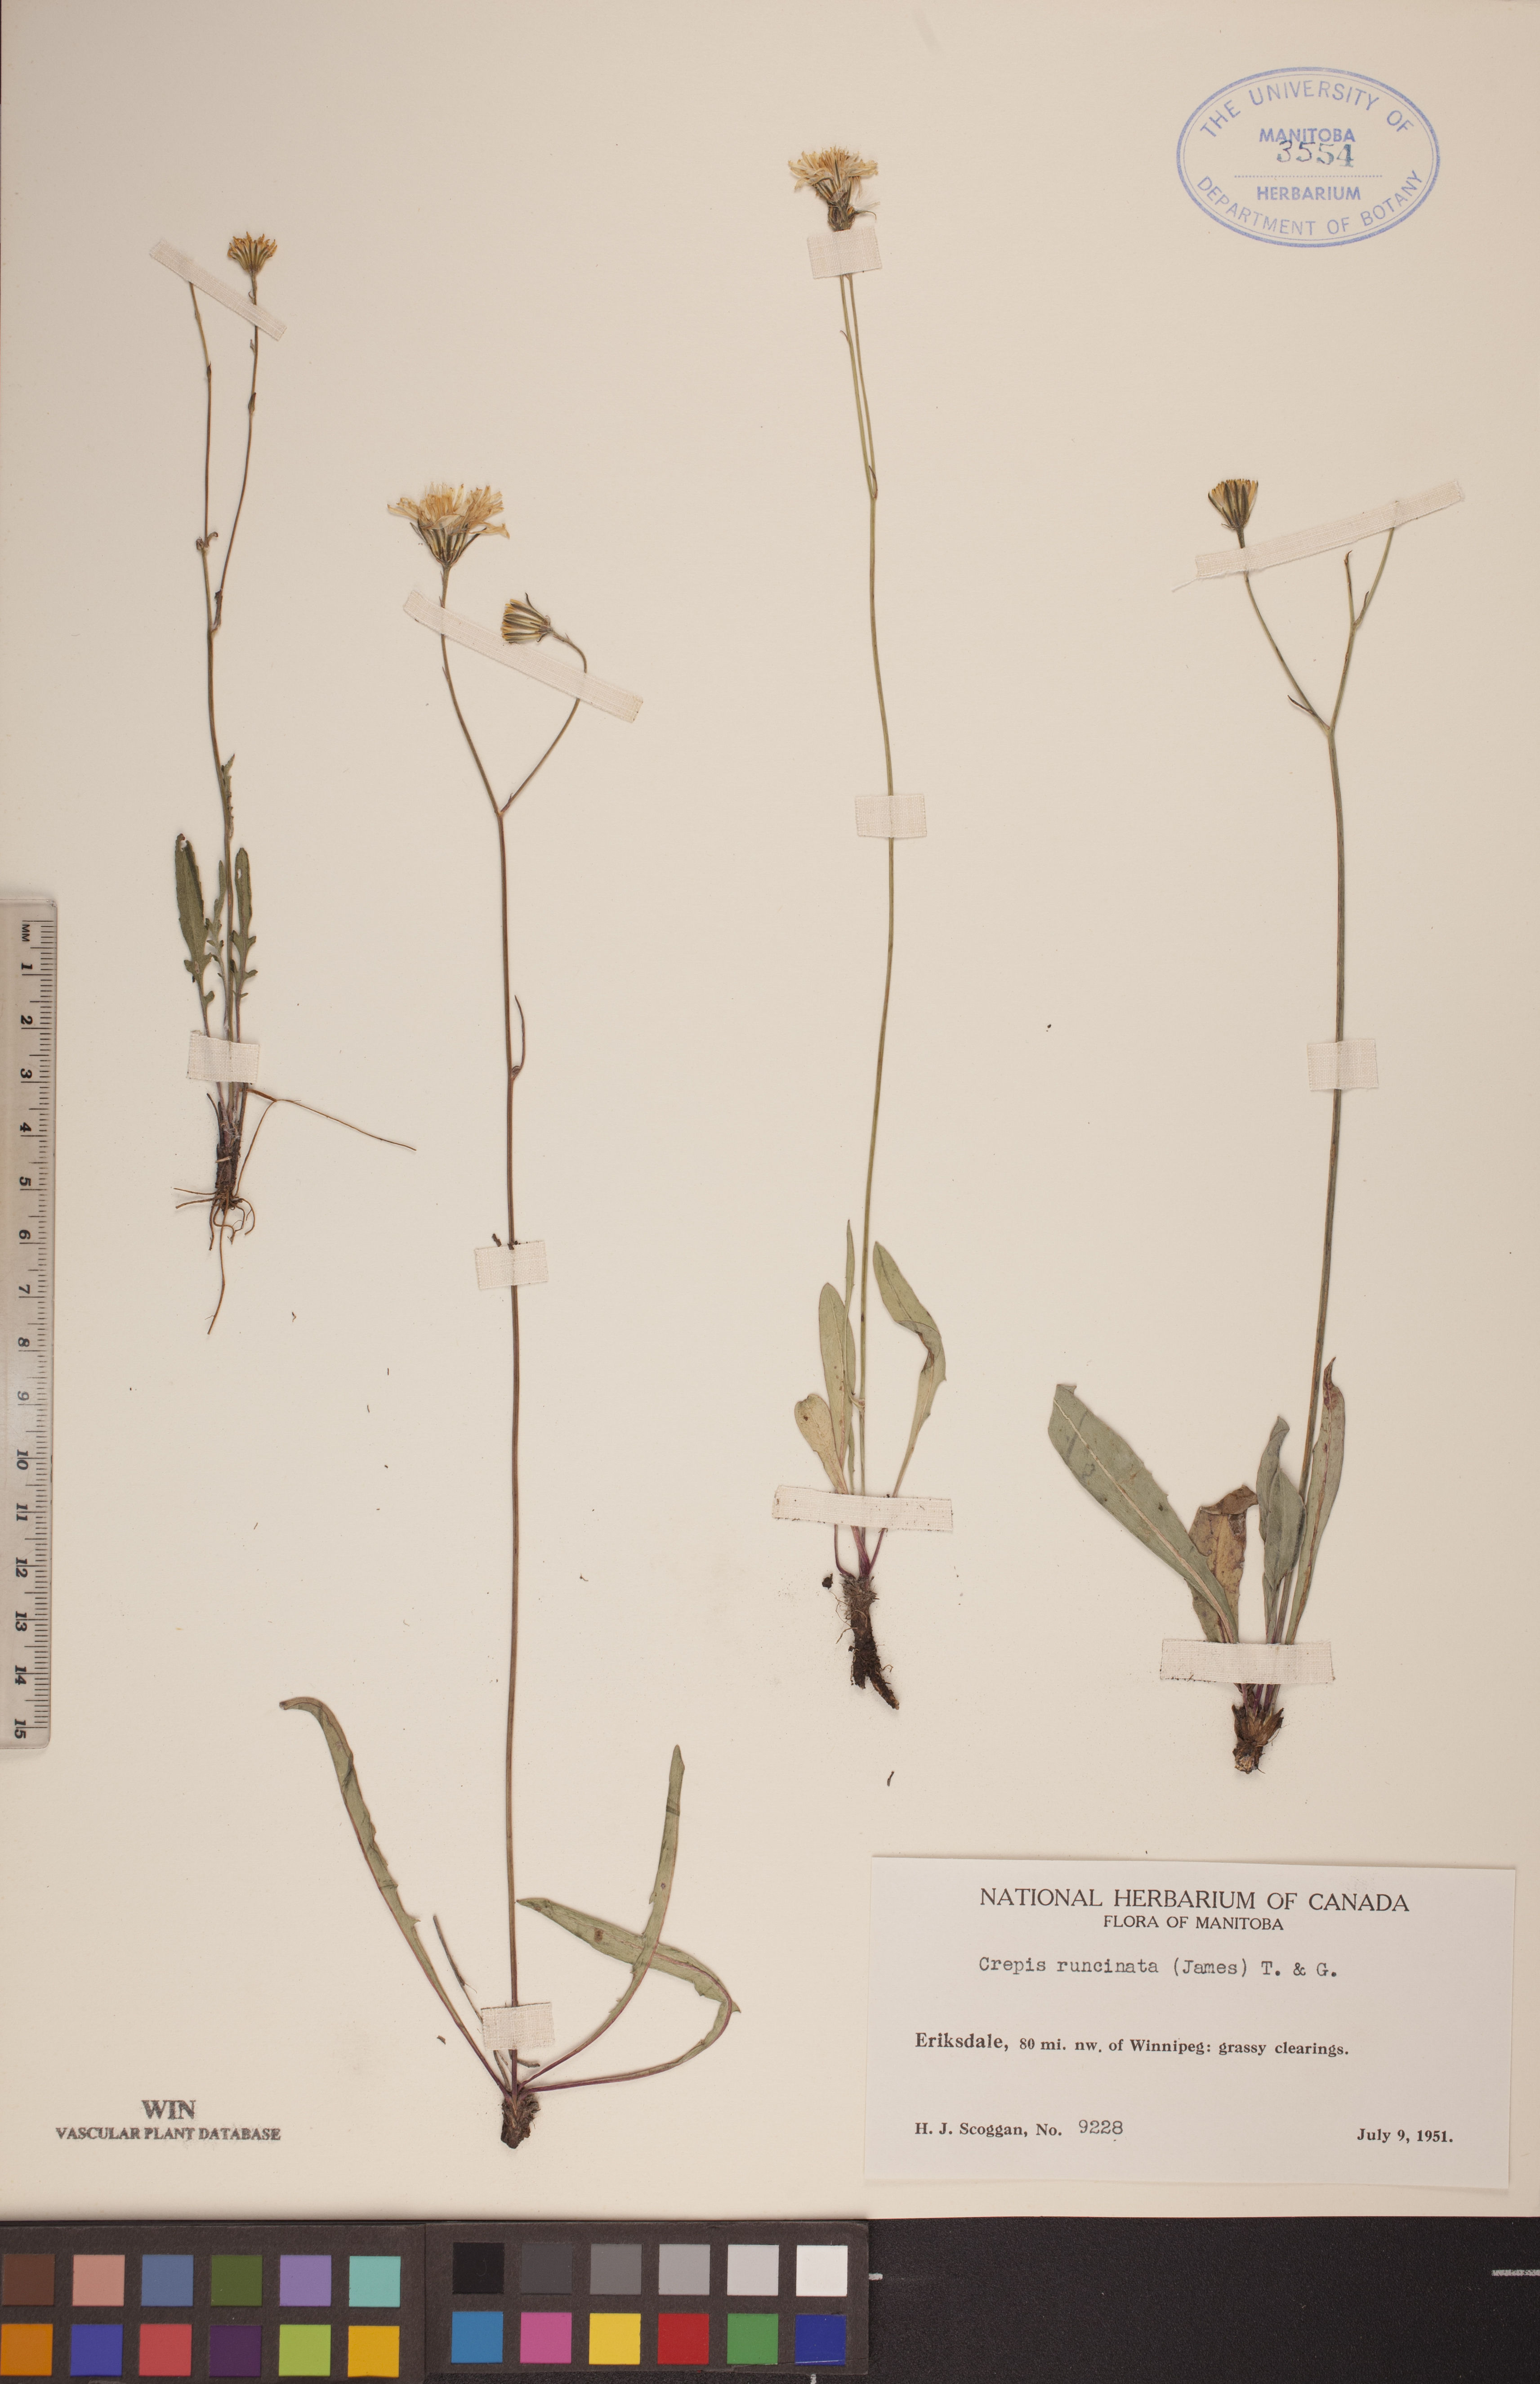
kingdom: Plantae
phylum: Tracheophyta
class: Magnoliopsida
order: Asterales
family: Asteraceae
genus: Crepis
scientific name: Crepis runcinata
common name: Dandelion hawksbeard
